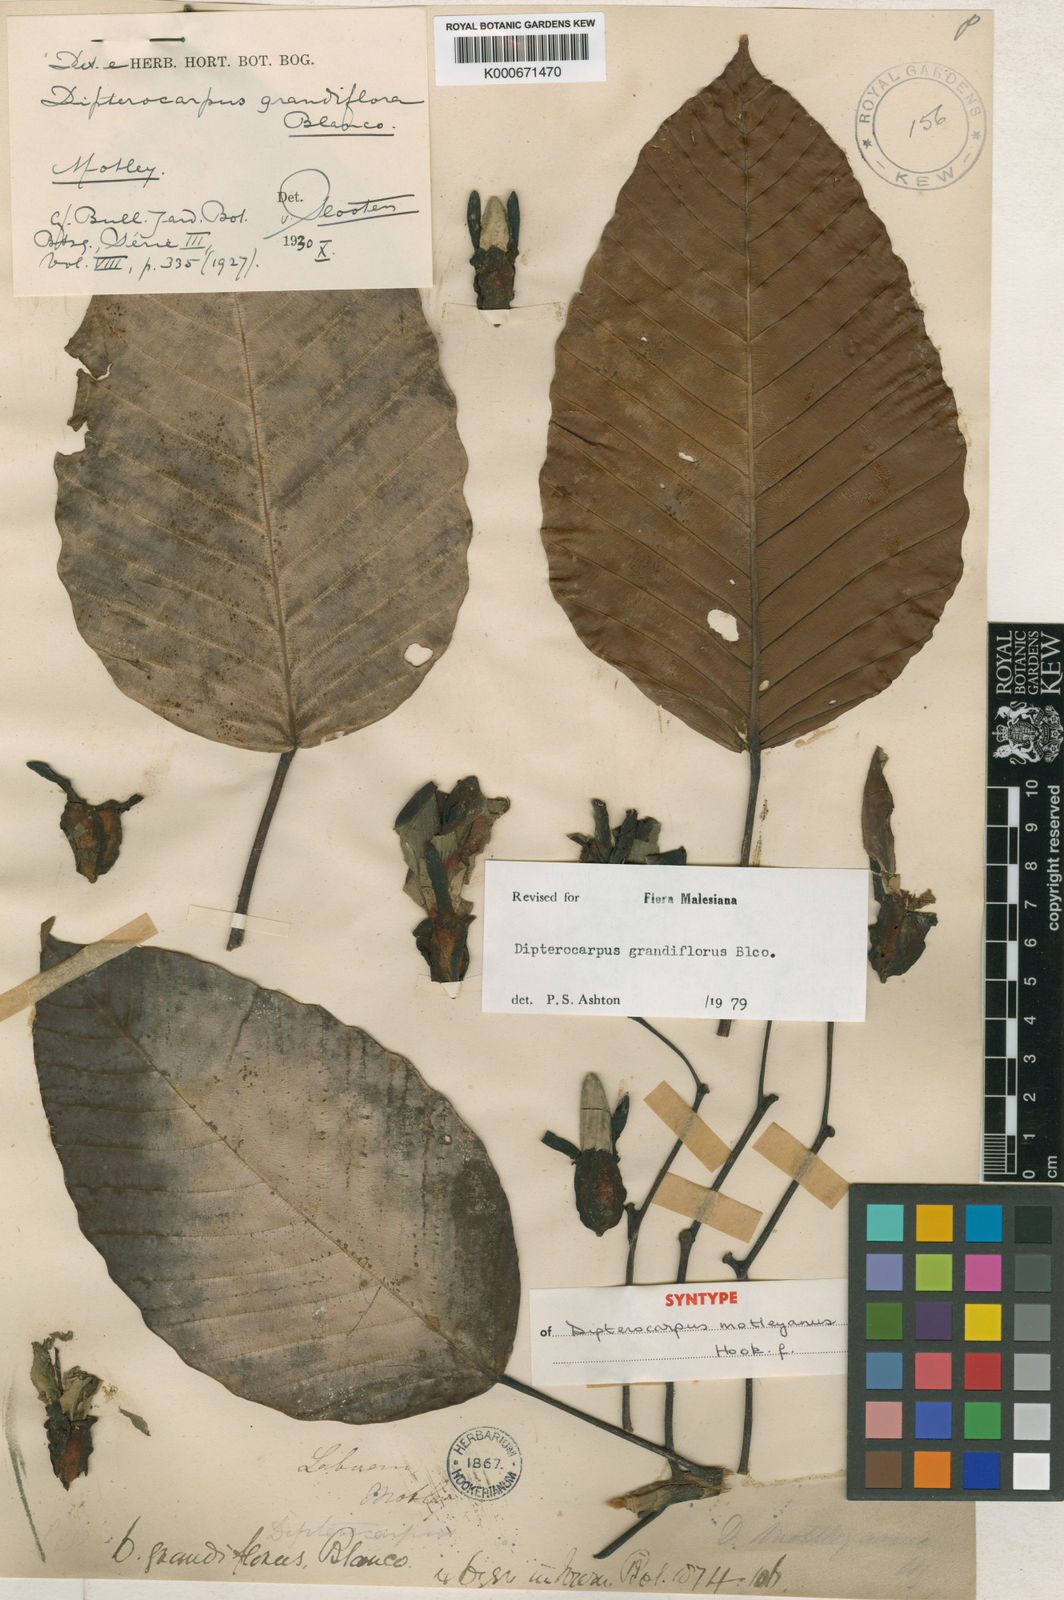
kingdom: Plantae
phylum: Tracheophyta
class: Magnoliopsida
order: Malvales
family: Dipterocarpaceae
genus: Dipterocarpus
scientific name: Dipterocarpus grandiflorus
